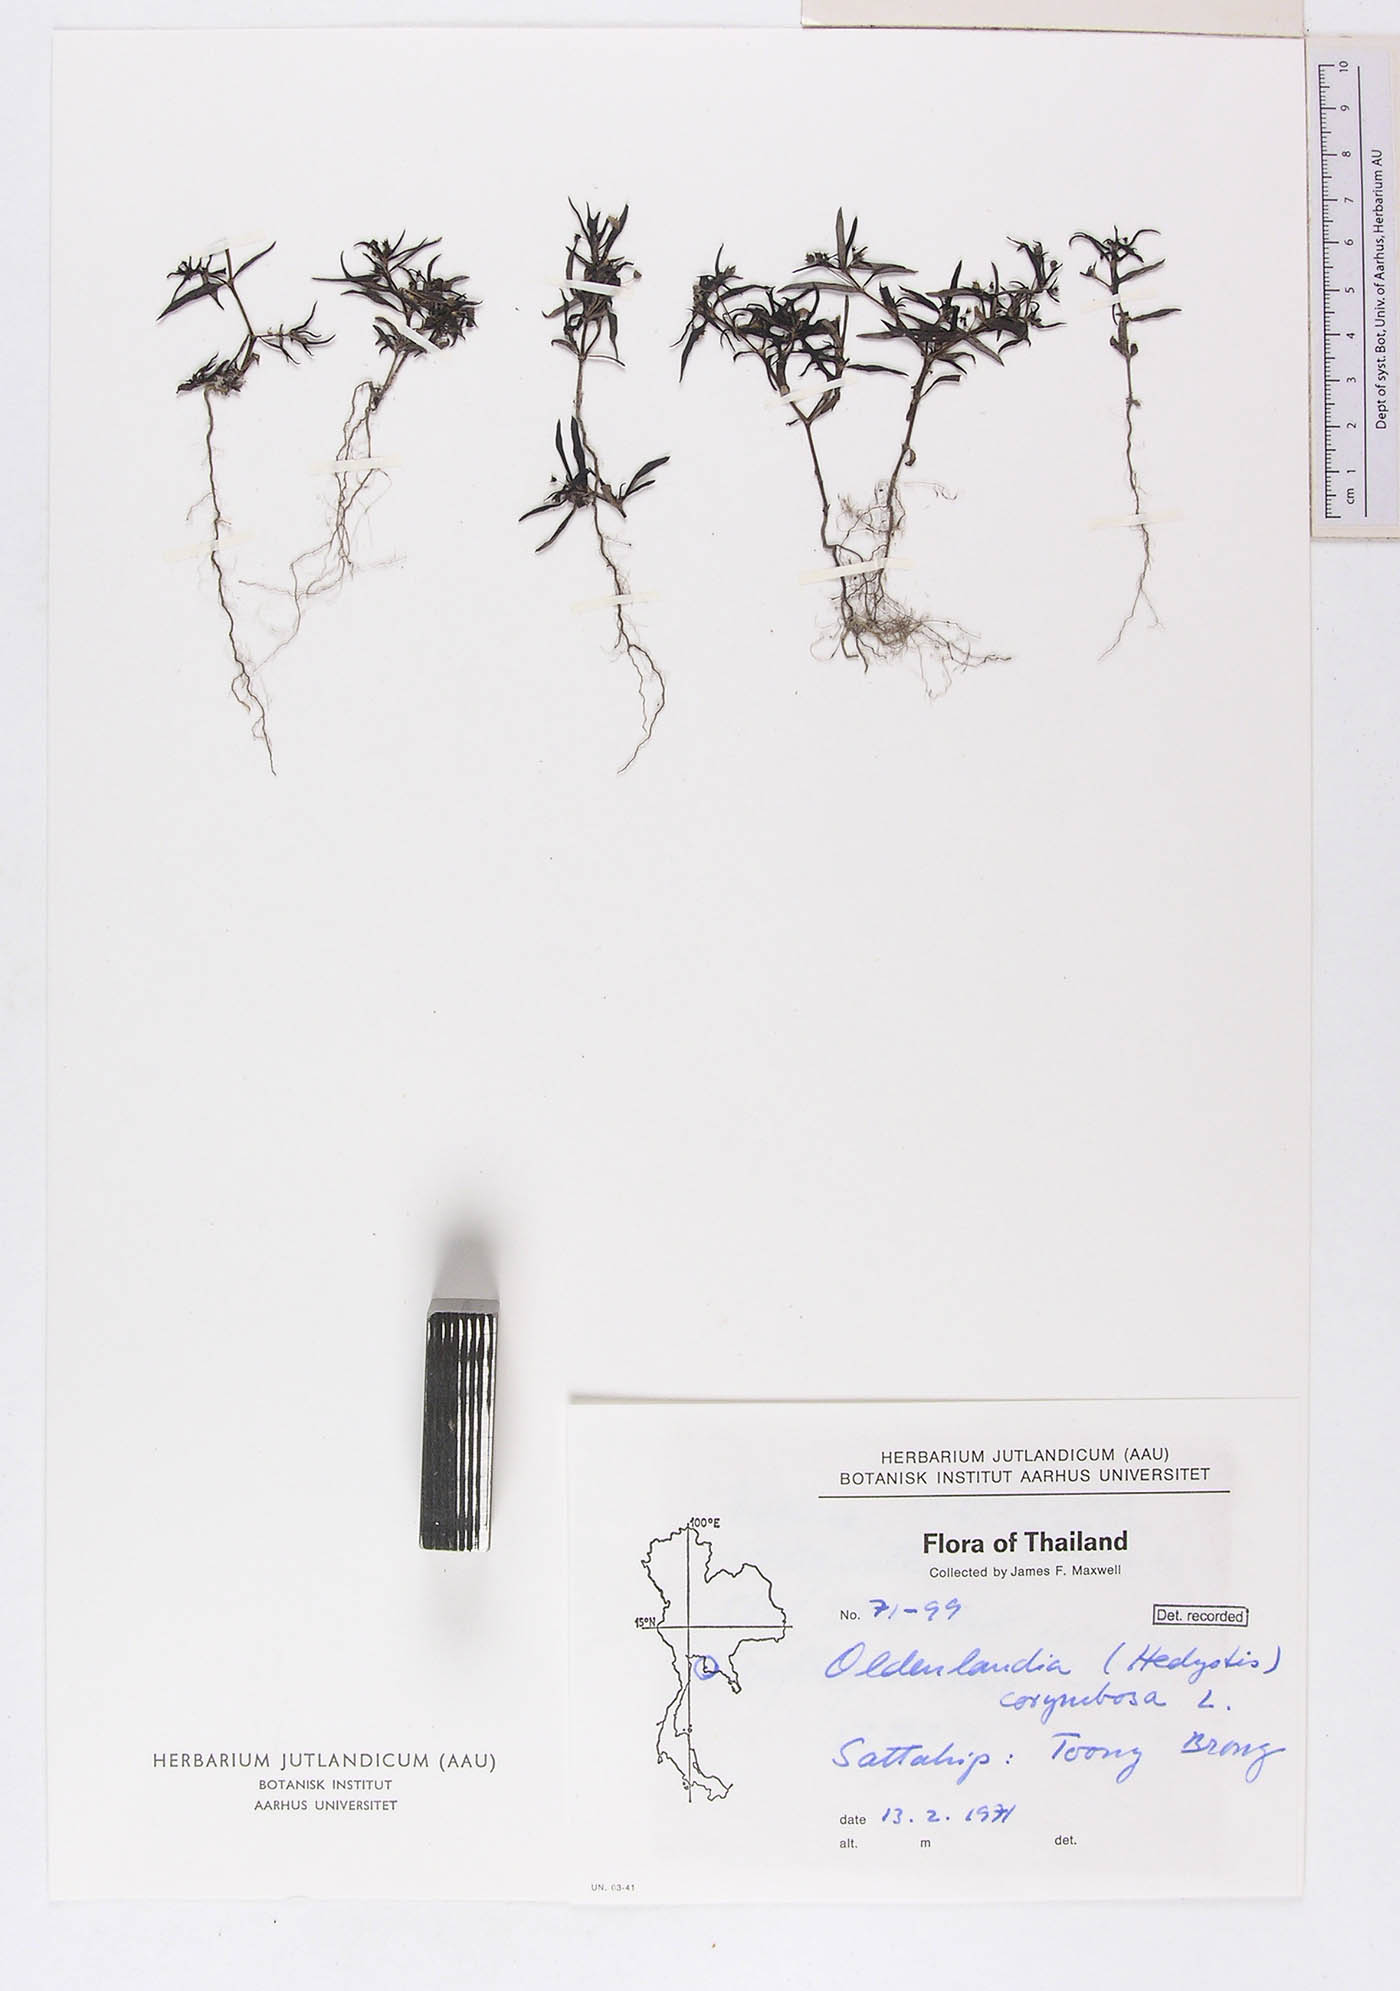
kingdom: Plantae
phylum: Tracheophyta
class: Magnoliopsida
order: Gentianales
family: Rubiaceae
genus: Oldenlandia
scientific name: Oldenlandia corymbosa
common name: Flat-top mille graines
